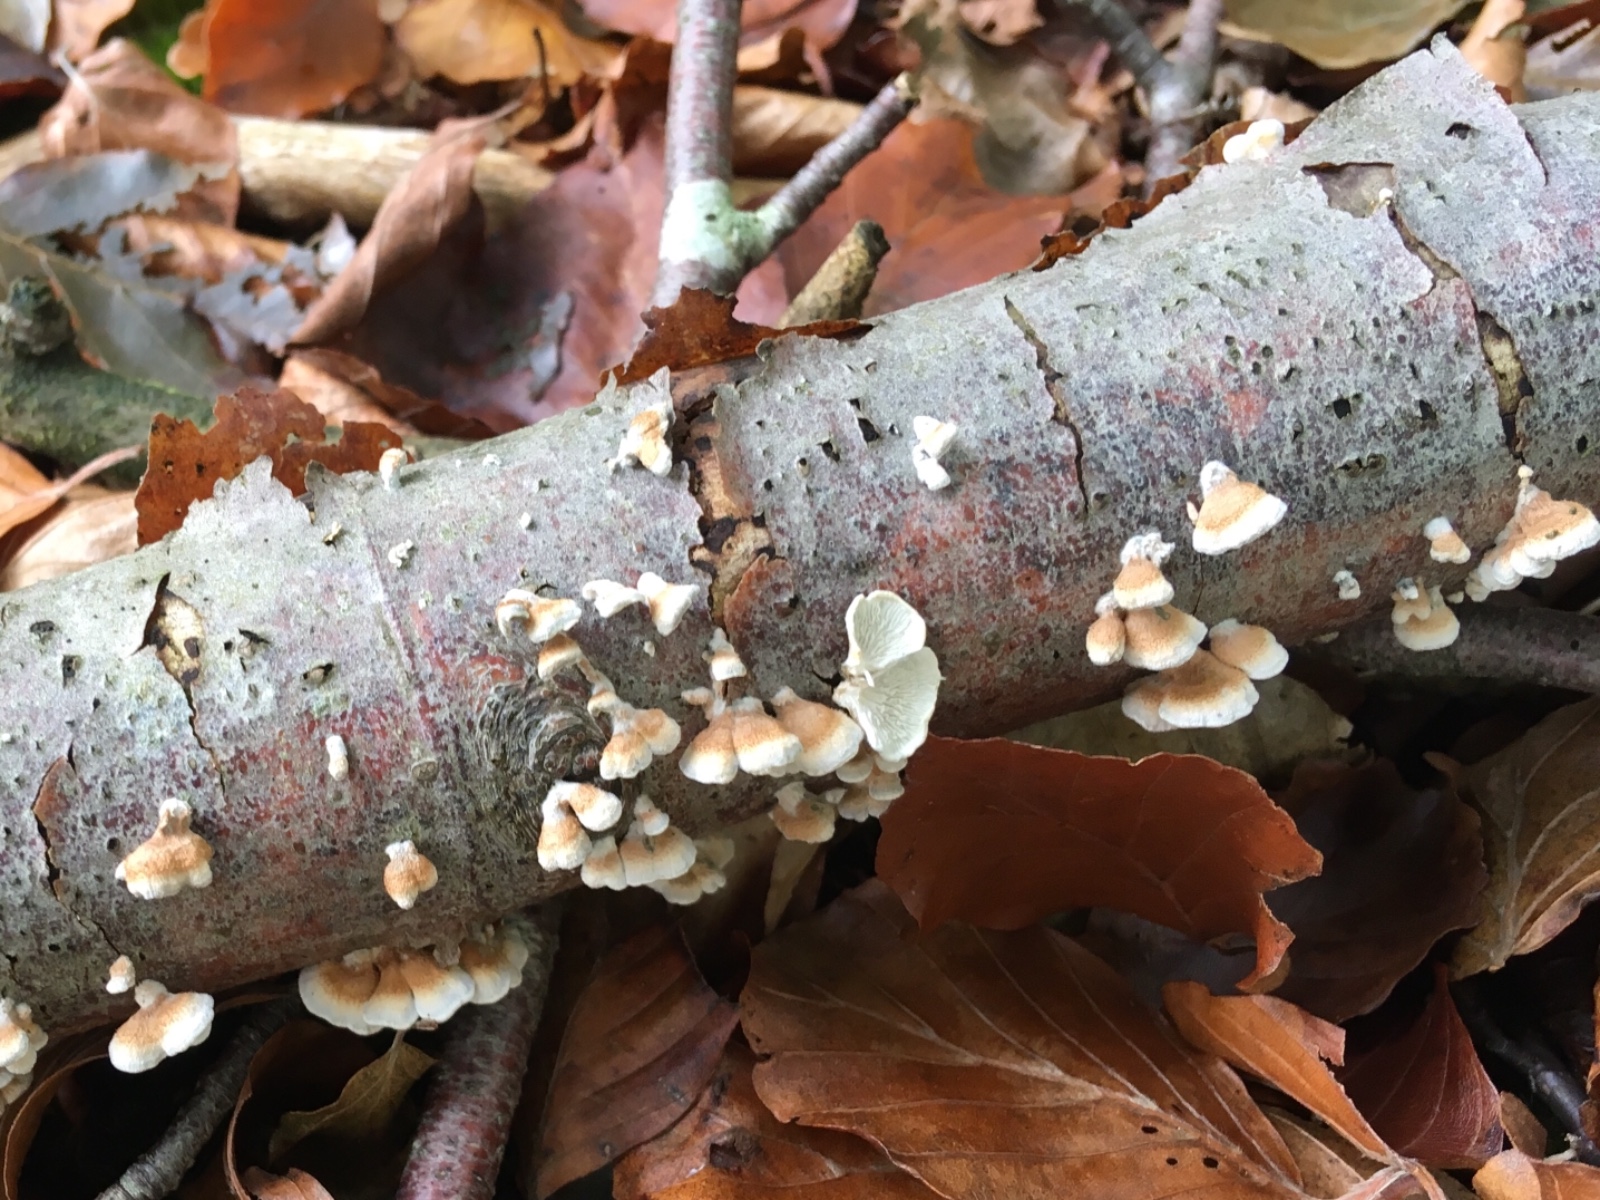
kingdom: Fungi
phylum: Basidiomycota
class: Agaricomycetes
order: Amylocorticiales
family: Amylocorticiaceae
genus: Plicaturopsis
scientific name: Plicaturopsis crispa
